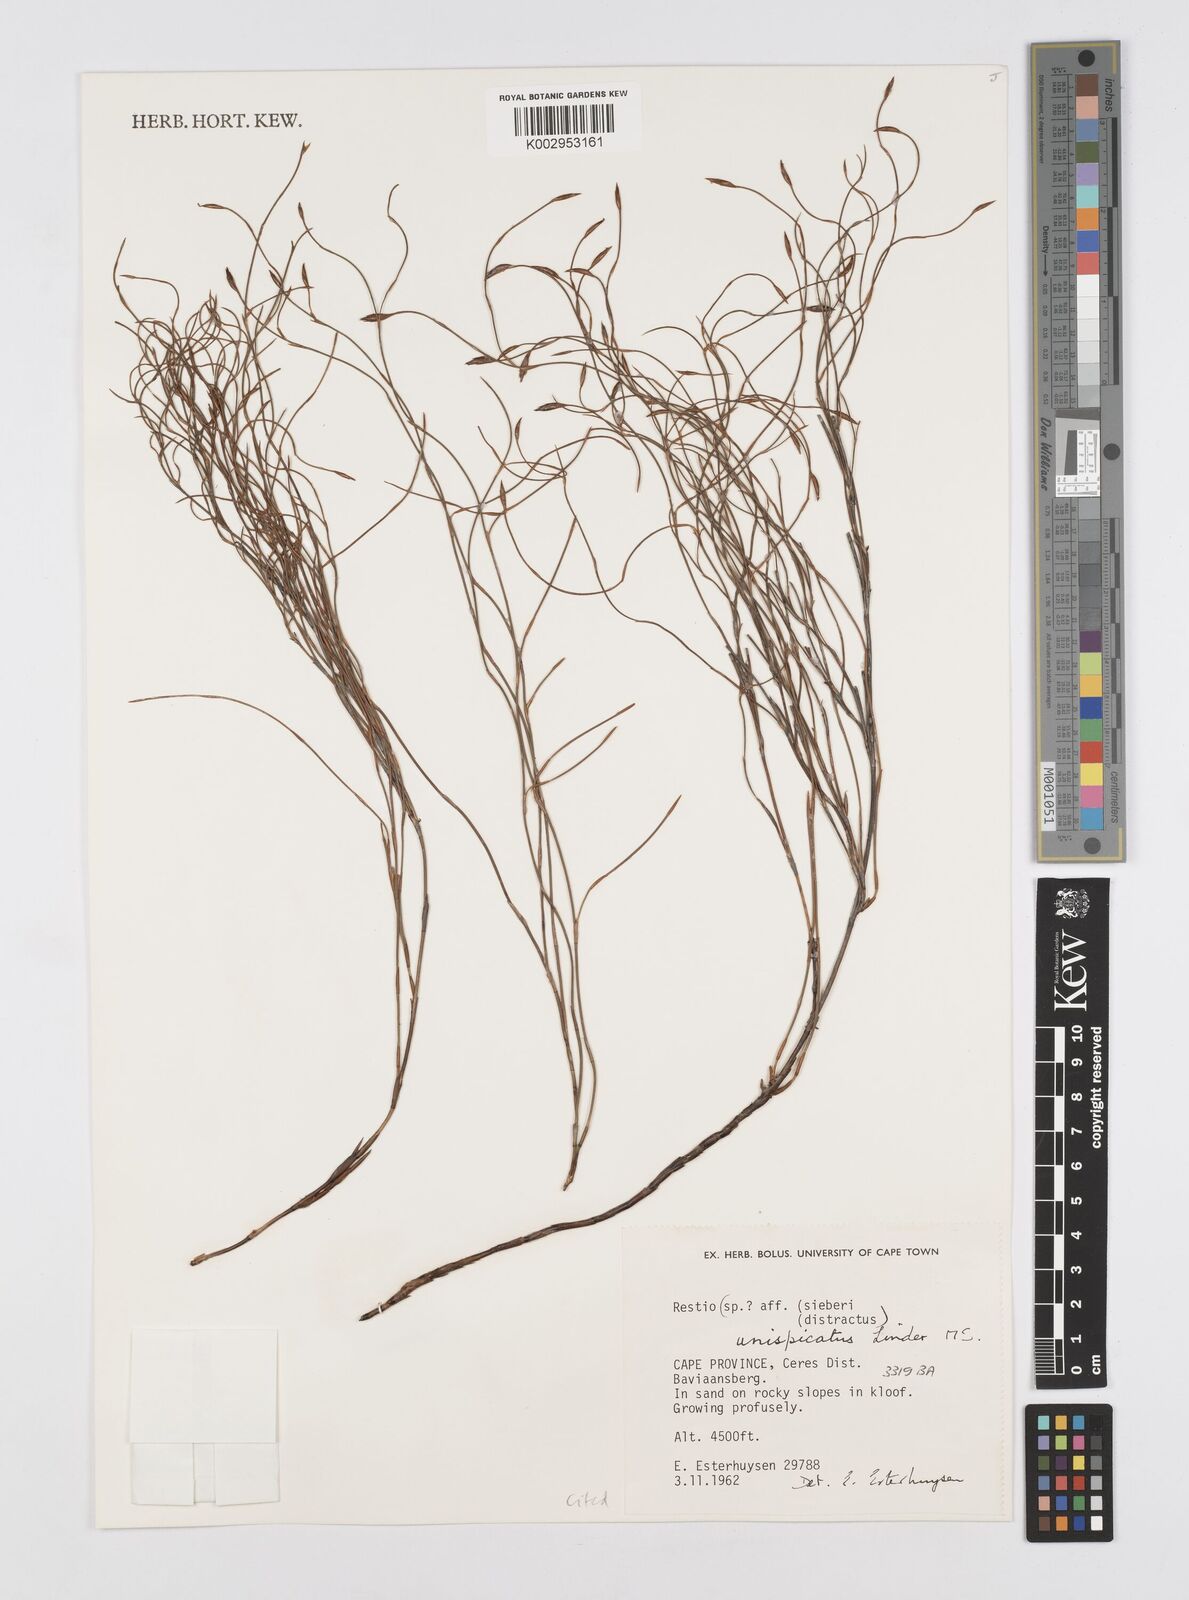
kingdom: Plantae
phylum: Tracheophyta
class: Liliopsida
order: Poales
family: Restionaceae
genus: Restio
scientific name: Restio unispicatus
